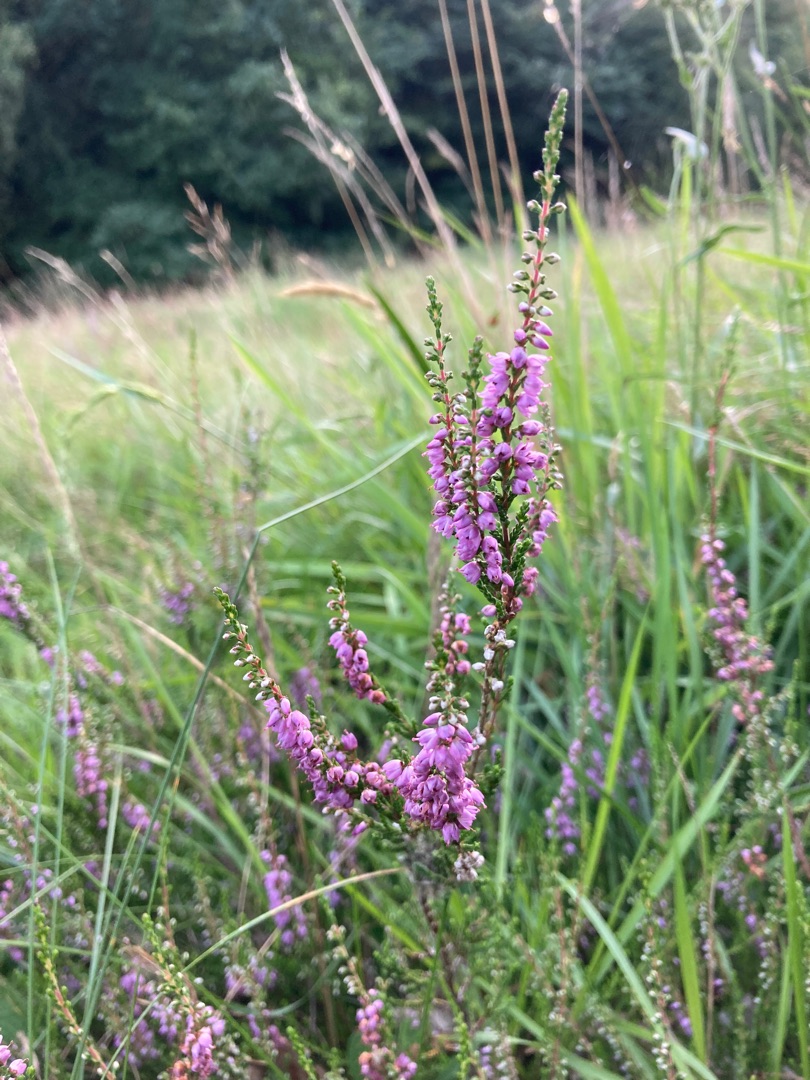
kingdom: Plantae
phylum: Tracheophyta
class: Magnoliopsida
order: Ericales
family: Ericaceae
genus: Calluna
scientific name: Calluna vulgaris
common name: Hedelyng
